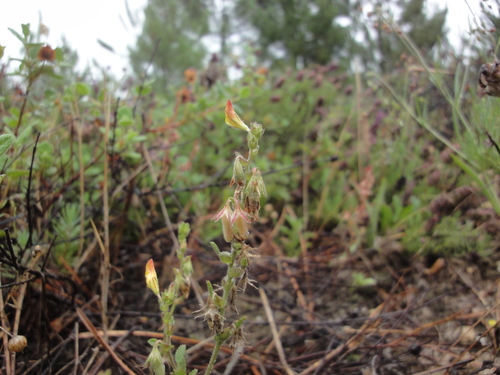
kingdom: Plantae
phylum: Tracheophyta
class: Magnoliopsida
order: Fabales
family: Fabaceae
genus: Ononis
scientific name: Ononis maweana
